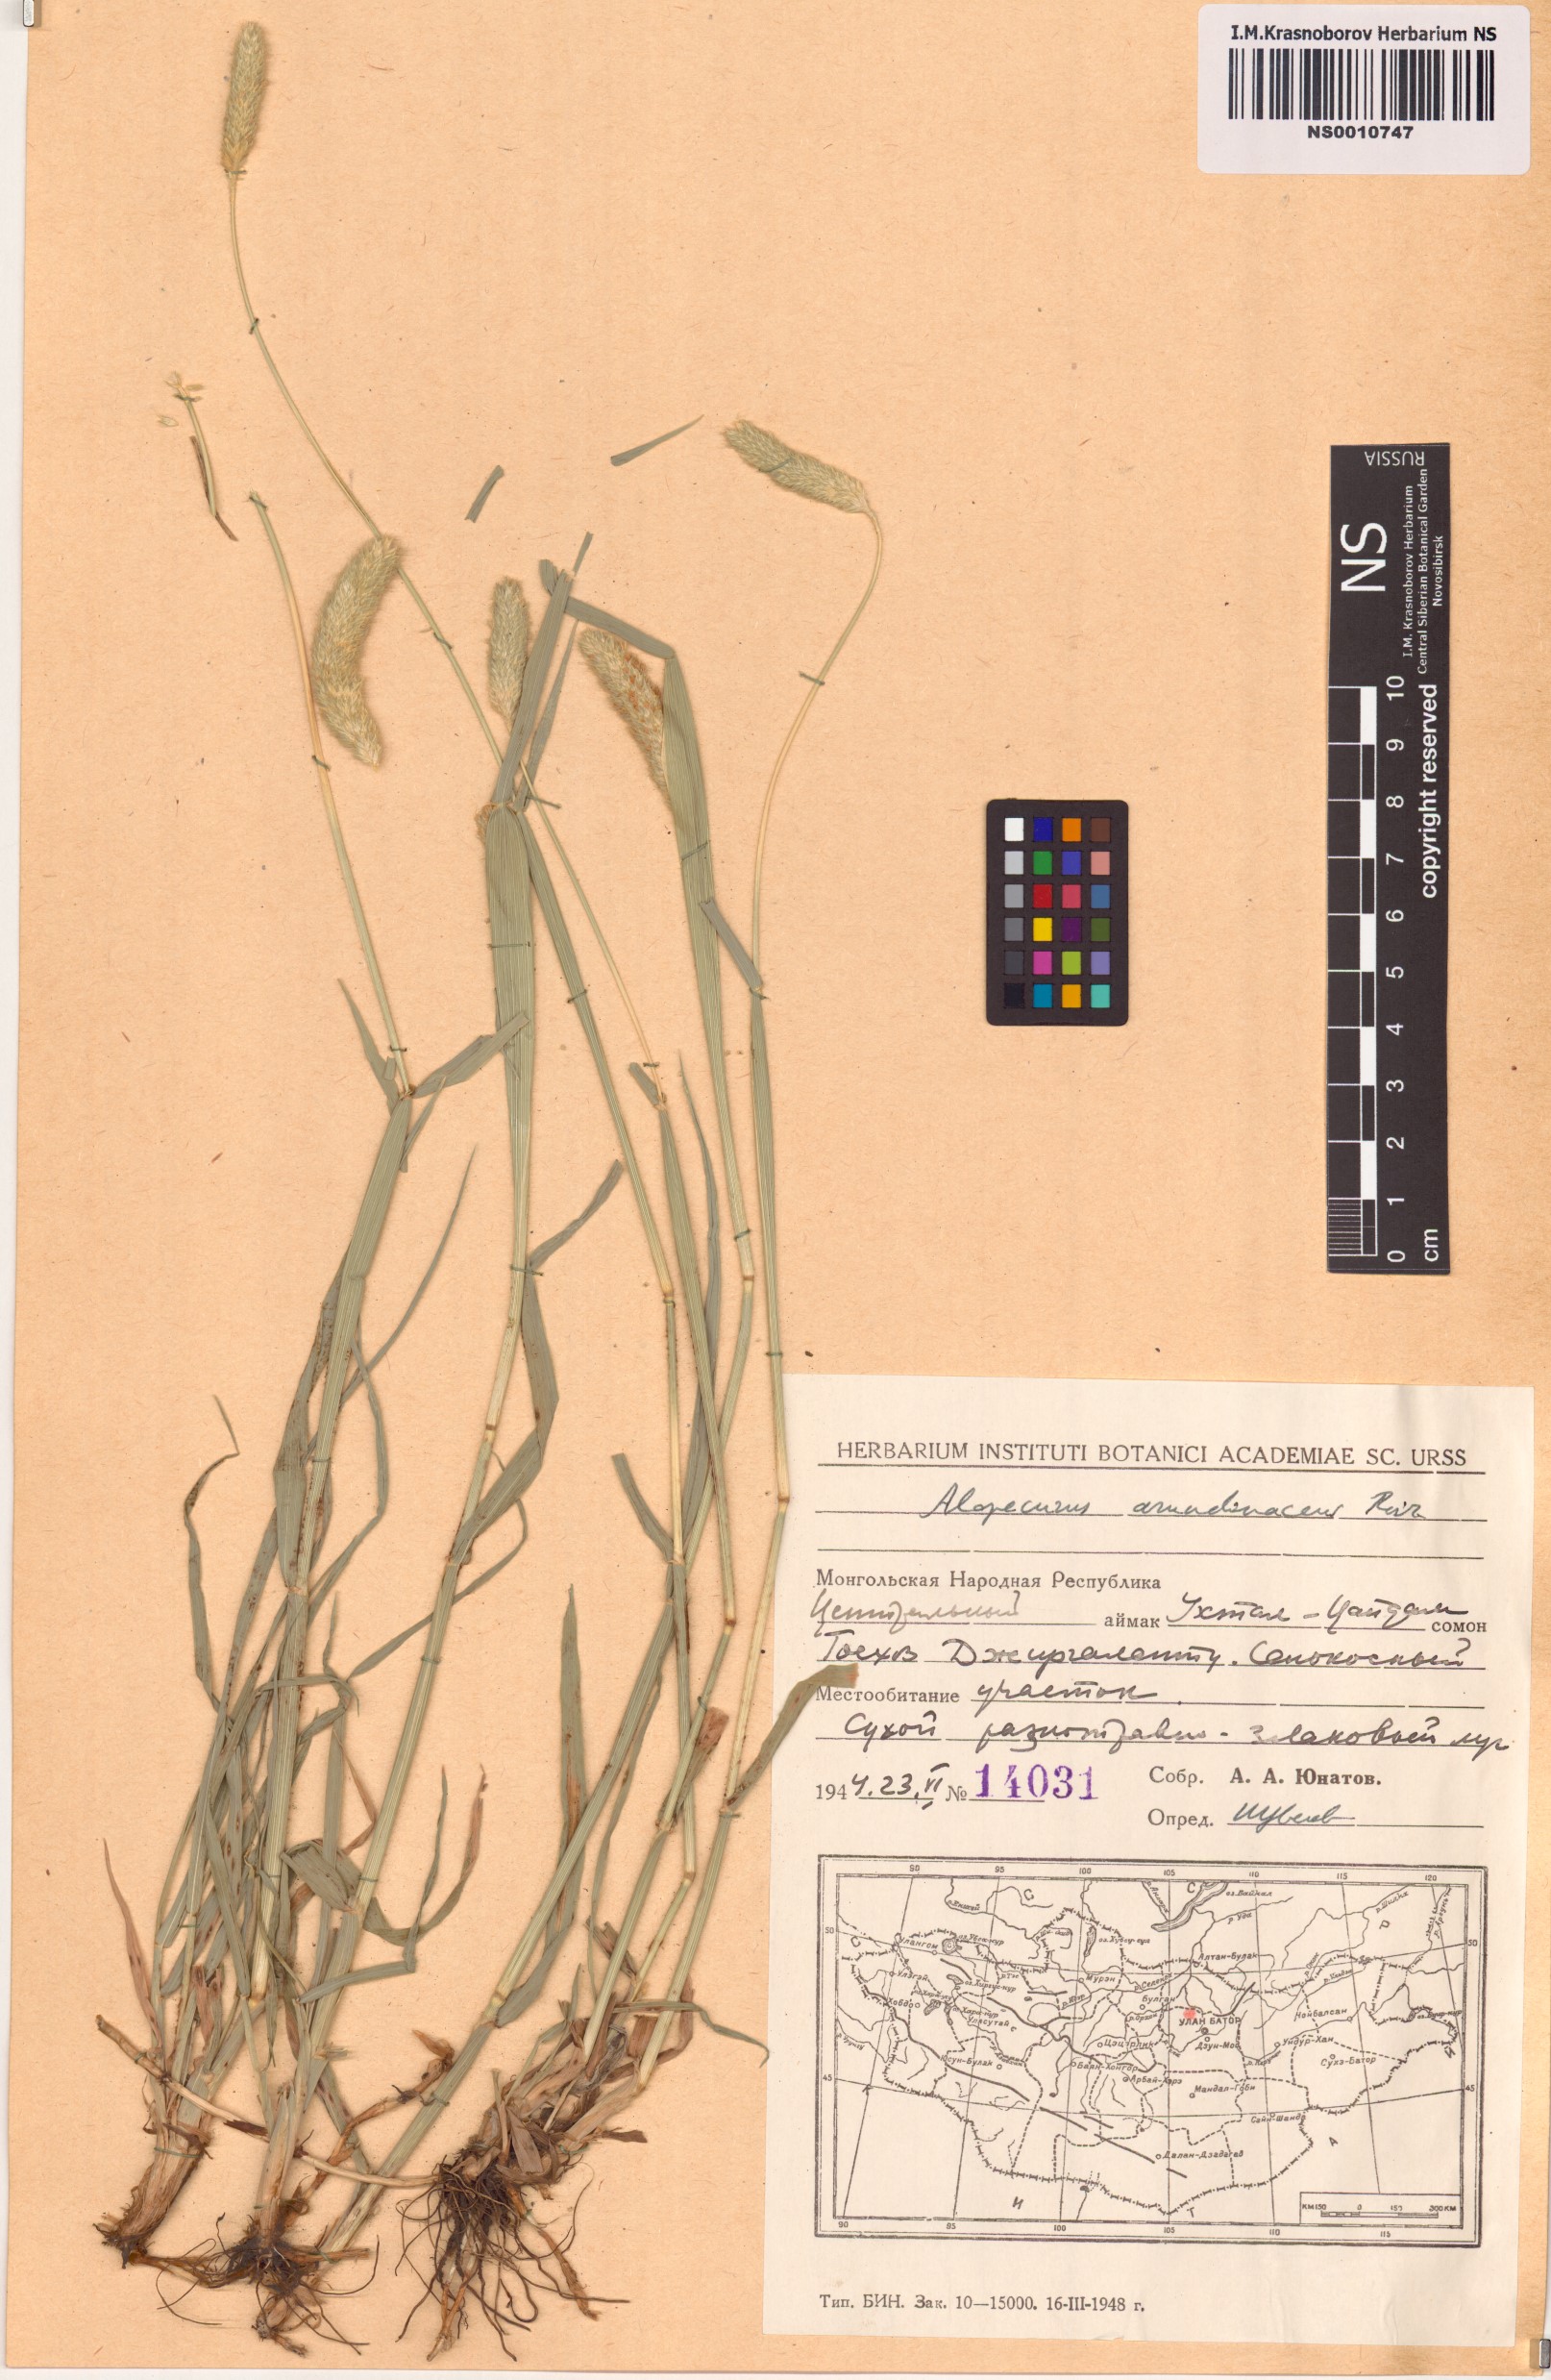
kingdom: Plantae
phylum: Tracheophyta
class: Liliopsida
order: Poales
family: Poaceae
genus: Alopecurus
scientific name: Alopecurus arundinaceus
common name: Creeping meadow foxtail
